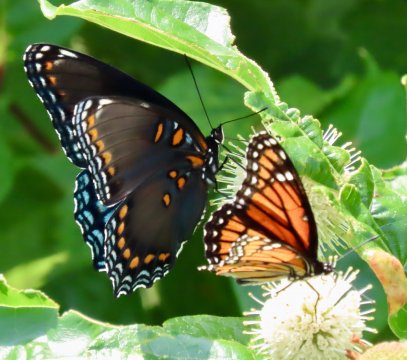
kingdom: Animalia
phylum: Arthropoda
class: Insecta
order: Lepidoptera
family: Nymphalidae
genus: Limenitis
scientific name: Limenitis arthemis
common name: Red-spotted Admiral
